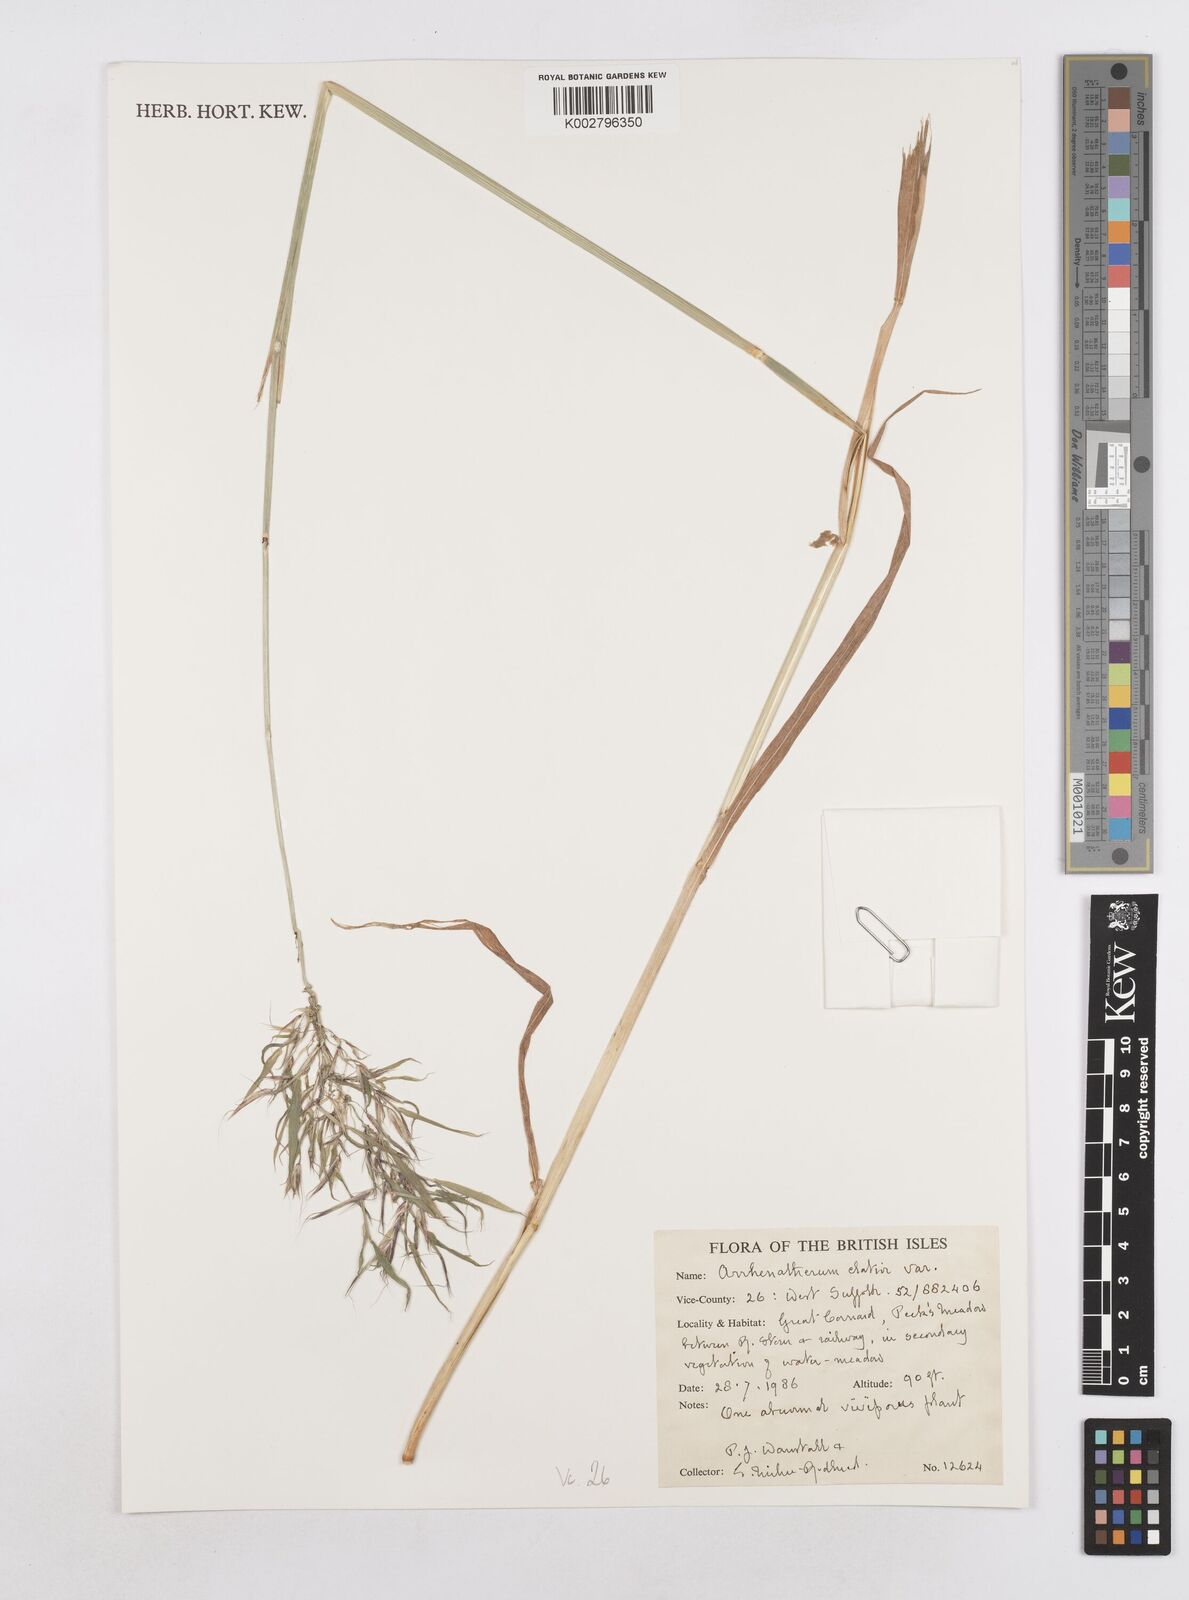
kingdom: Plantae
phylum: Tracheophyta
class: Liliopsida
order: Poales
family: Poaceae
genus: Arrhenatherum
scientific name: Arrhenatherum elatius
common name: Tall oatgrass
